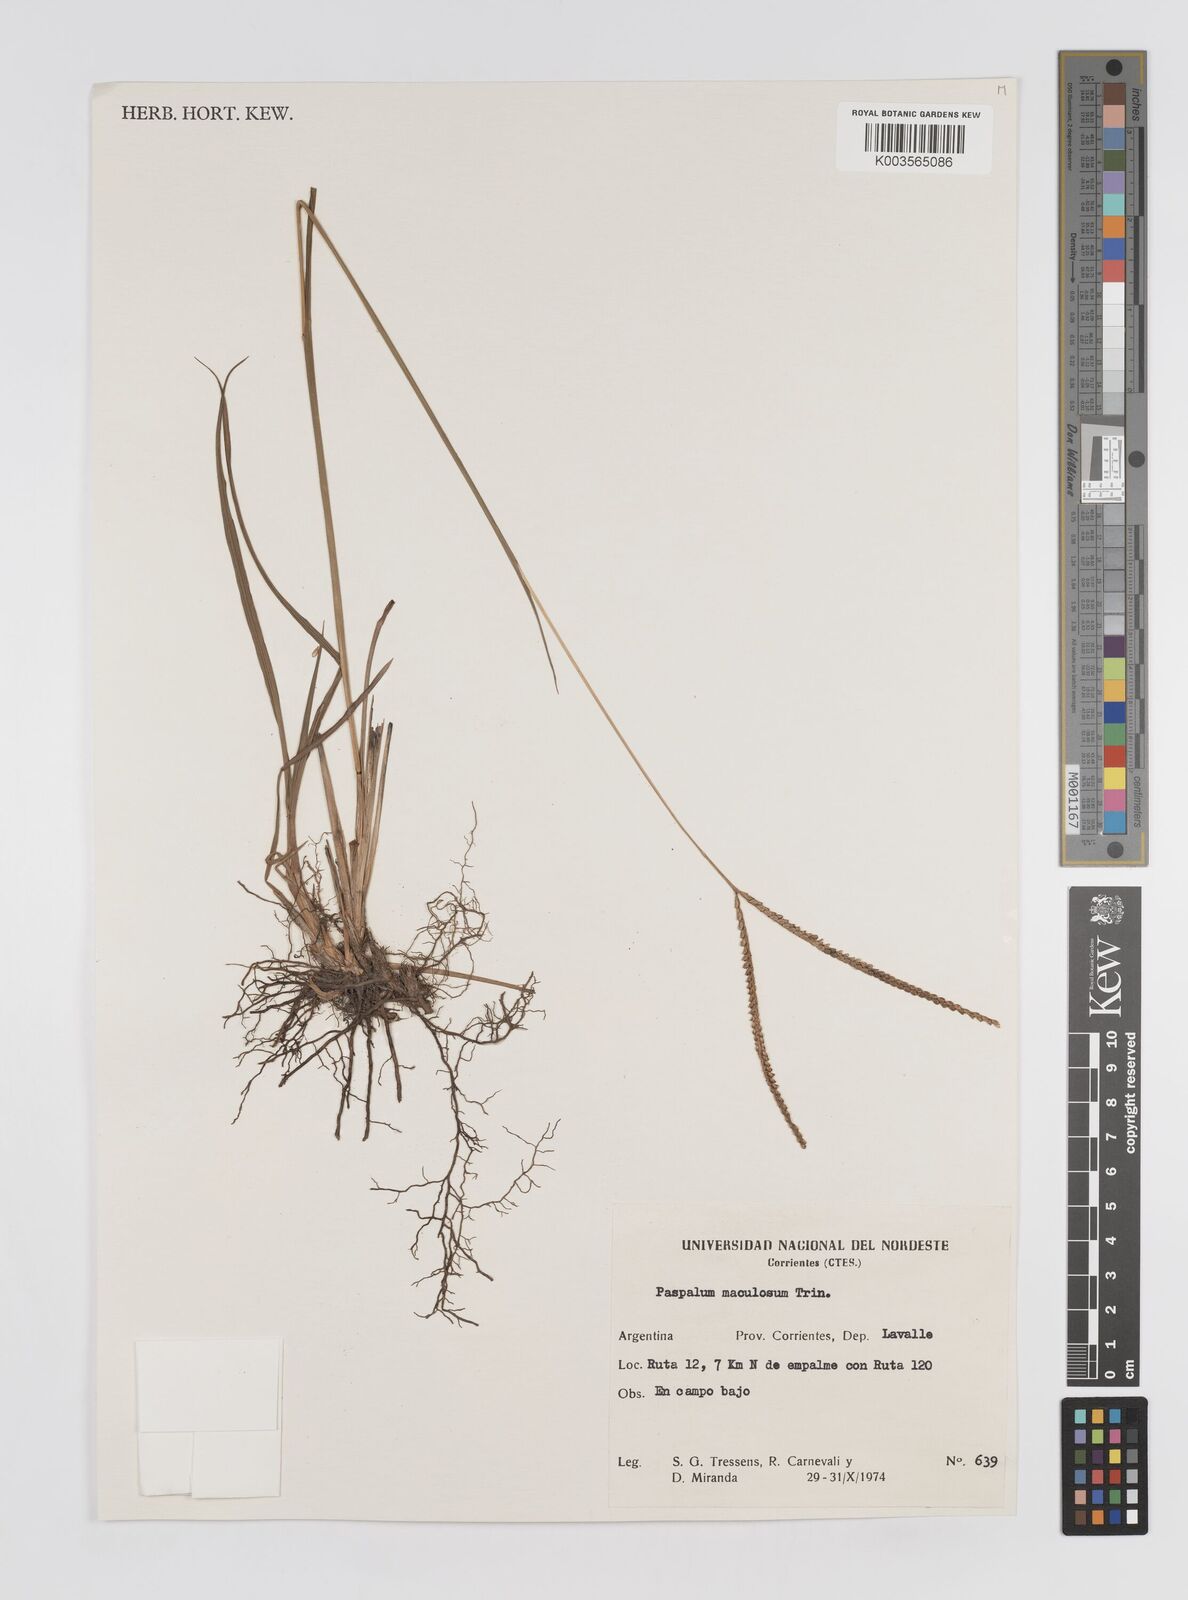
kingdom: Plantae
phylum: Tracheophyta
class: Liliopsida
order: Poales
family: Poaceae
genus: Paspalum
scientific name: Paspalum maculosum
